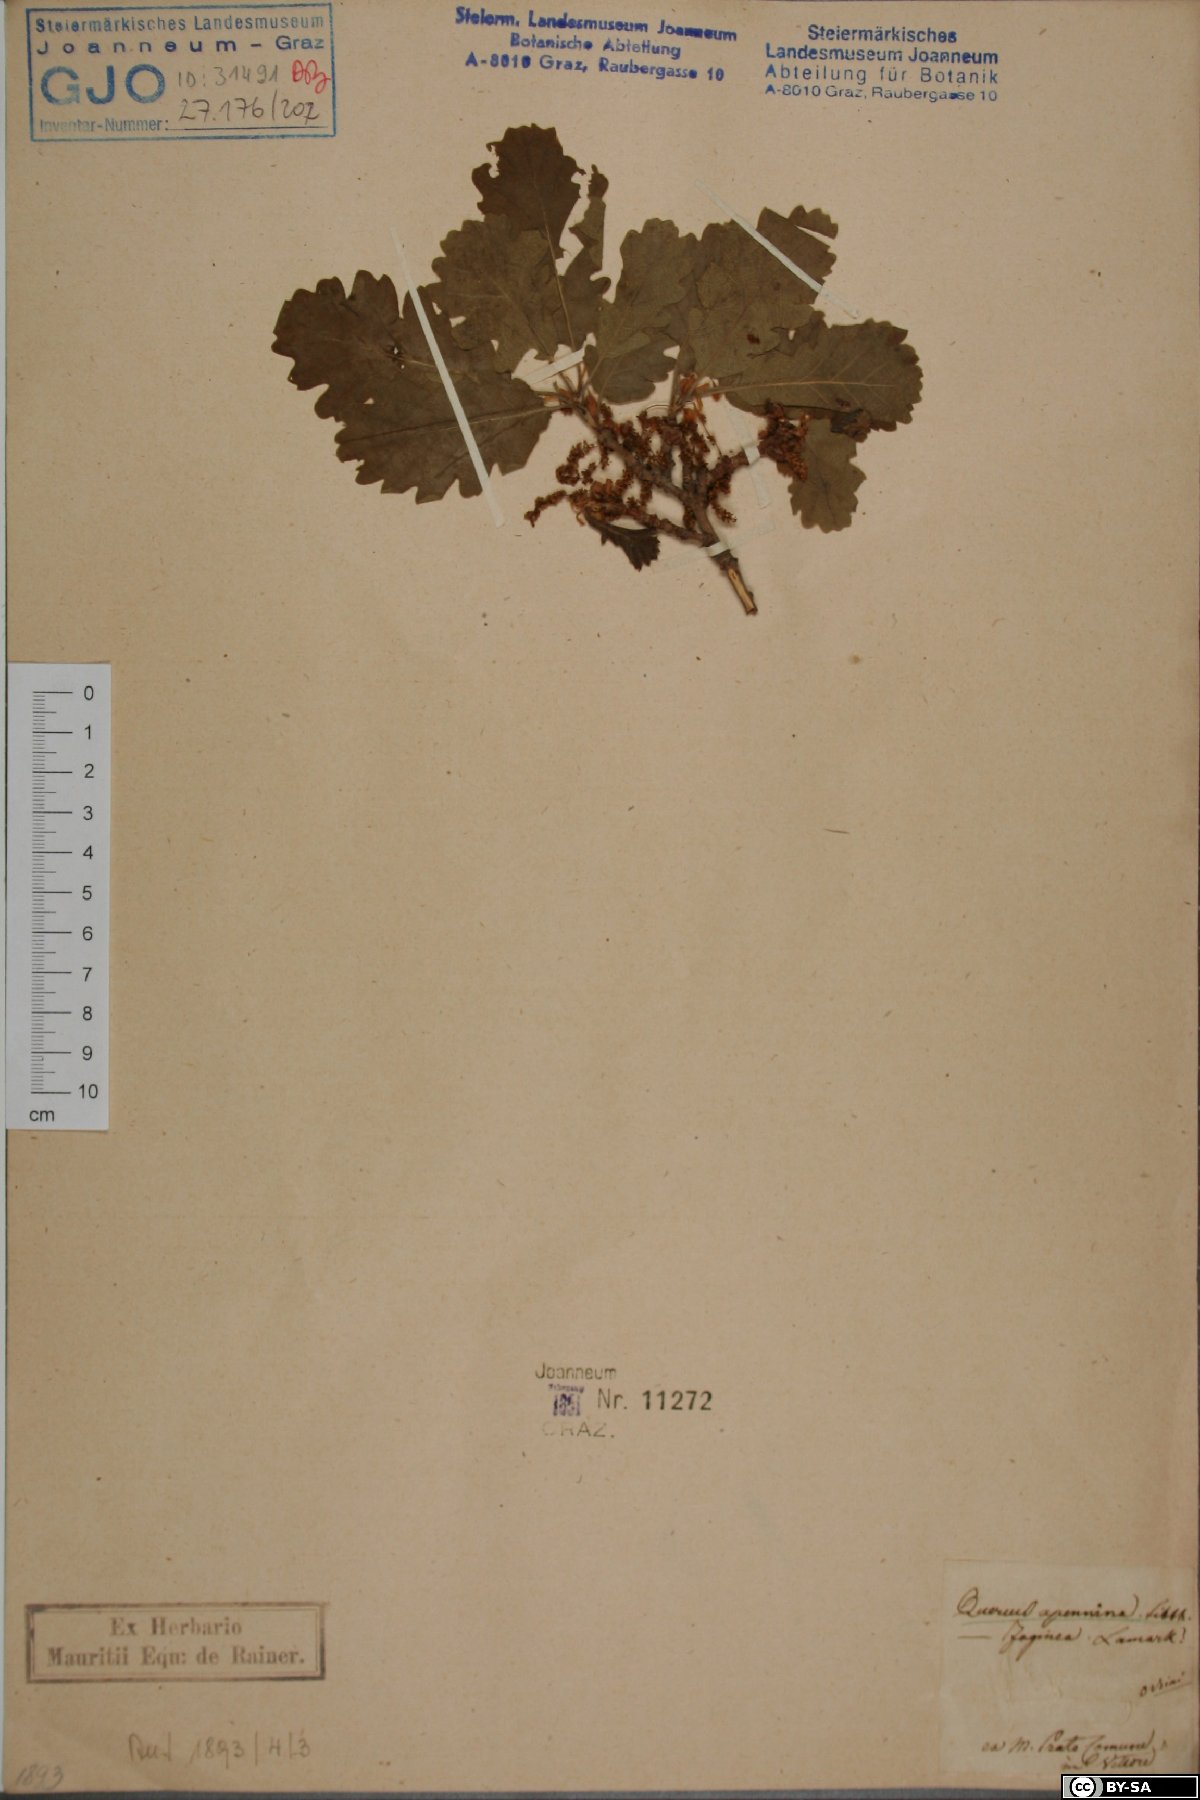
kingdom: Plantae
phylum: Tracheophyta
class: Magnoliopsida
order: Fagales
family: Fagaceae
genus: Quercus
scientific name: Quercus pubescens
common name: Downy oak
